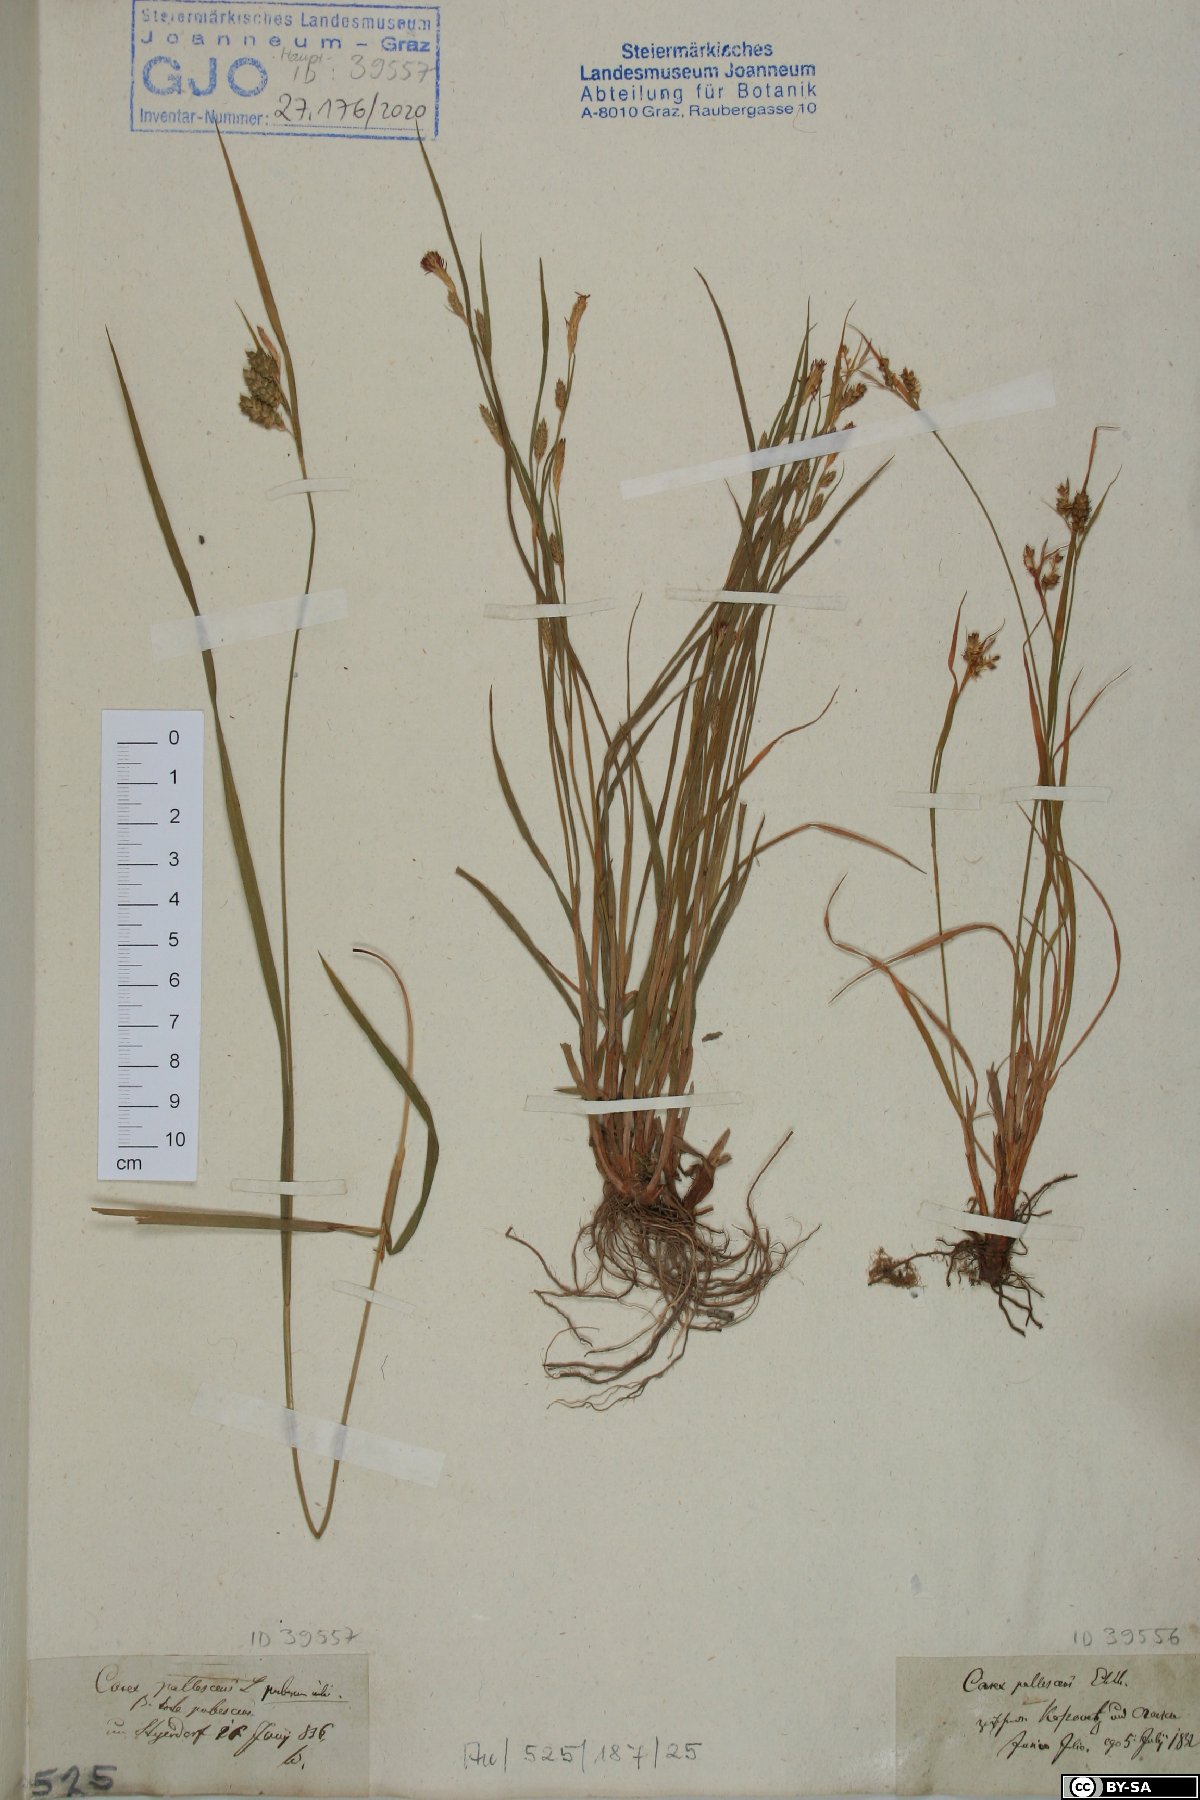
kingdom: Plantae
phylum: Tracheophyta
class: Liliopsida
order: Poales
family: Cyperaceae
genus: Carex
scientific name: Carex pallescens
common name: Pale sedge
